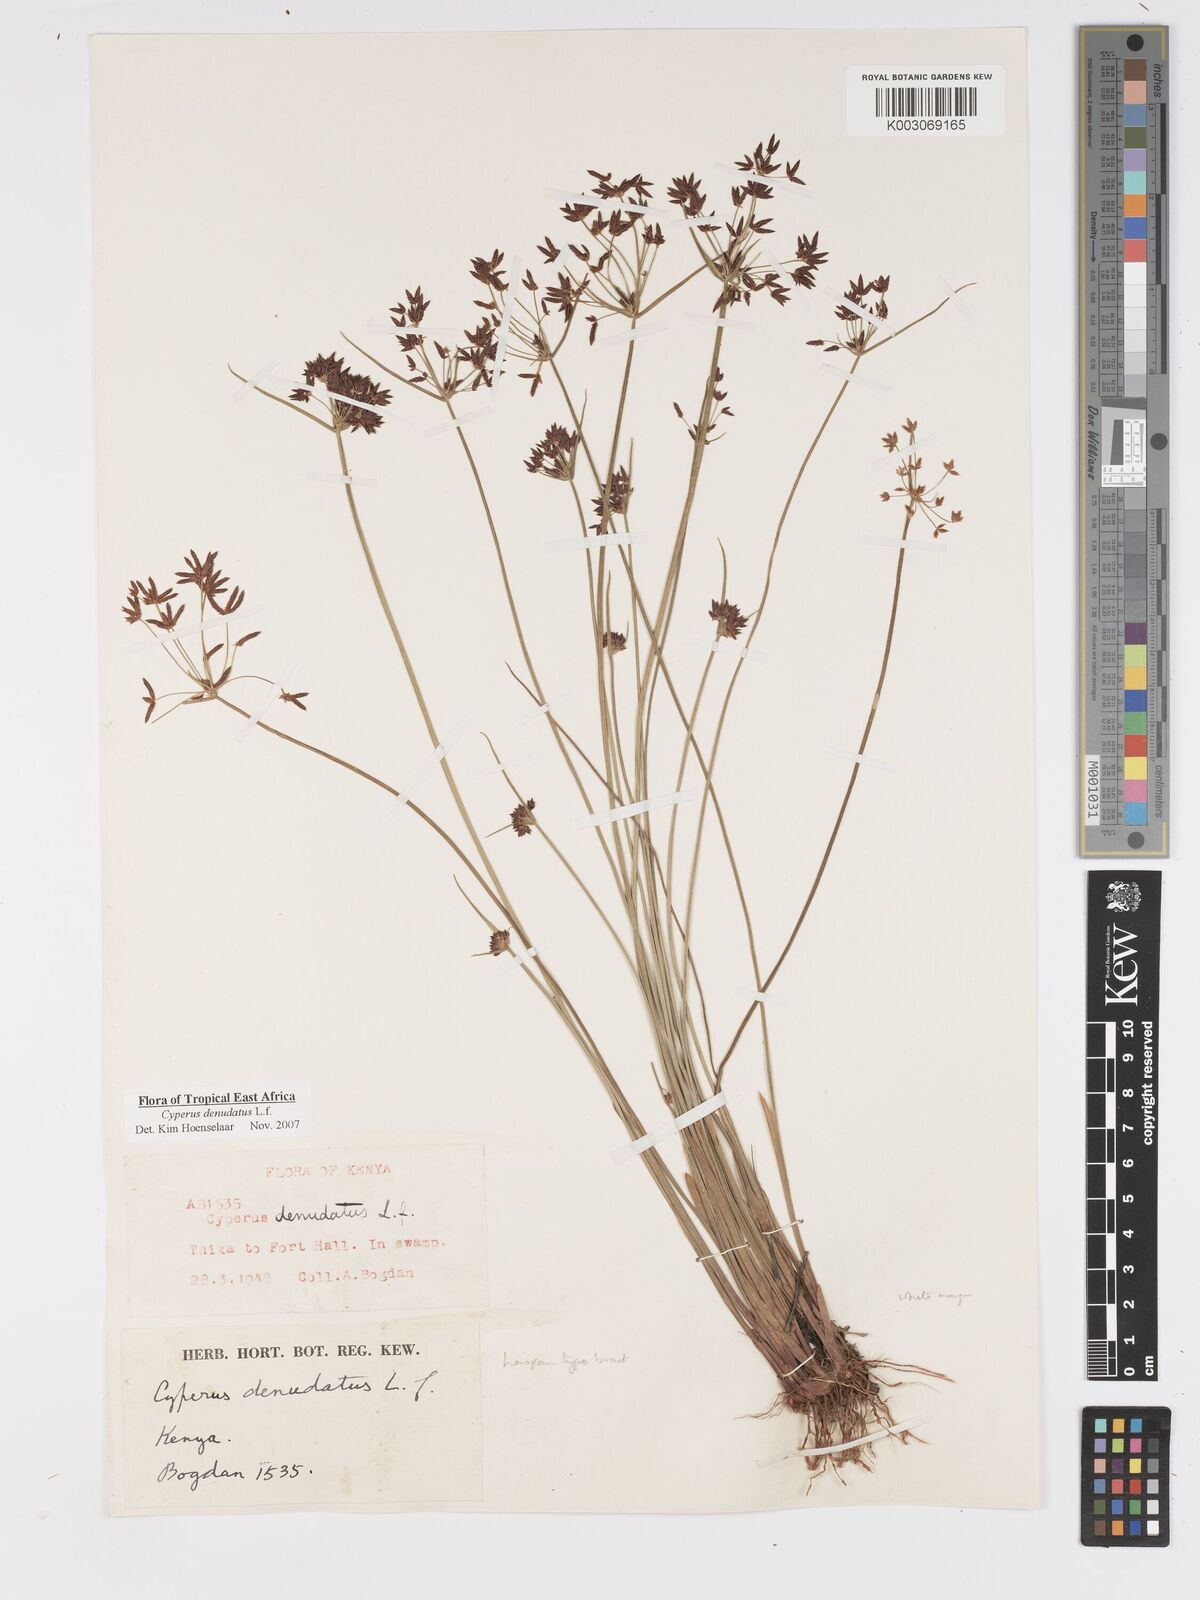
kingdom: Plantae
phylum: Tracheophyta
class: Liliopsida
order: Poales
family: Cyperaceae
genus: Cyperus
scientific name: Cyperus denudatus
